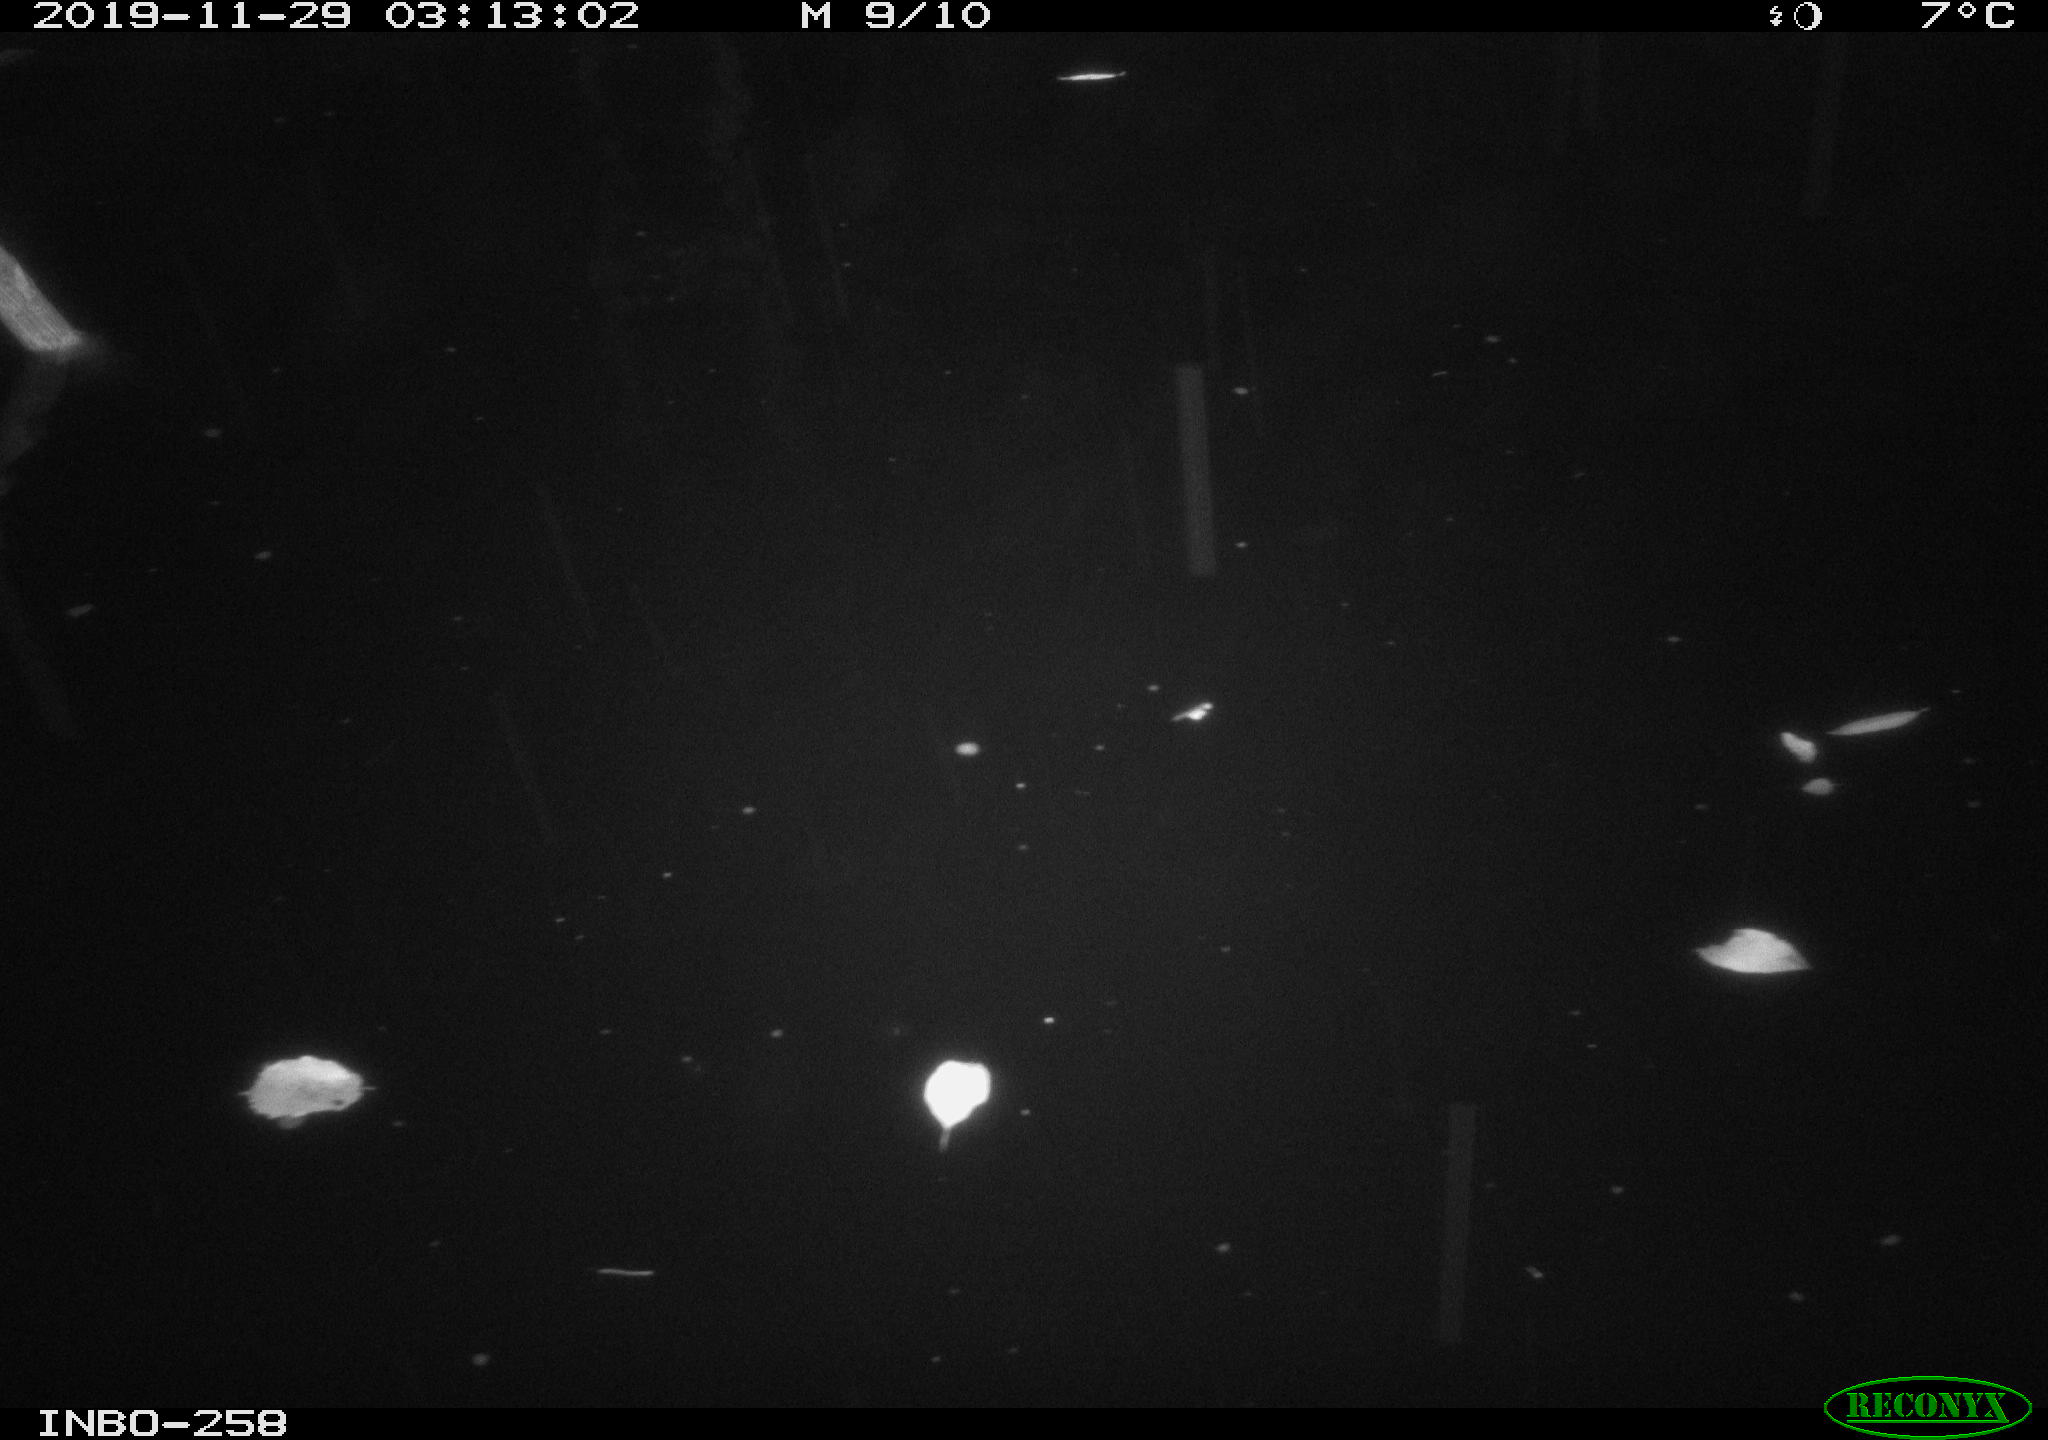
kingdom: Animalia
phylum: Chordata
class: Aves
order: Anseriformes
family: Anatidae
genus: Anas
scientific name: Anas platyrhynchos
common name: Mallard
